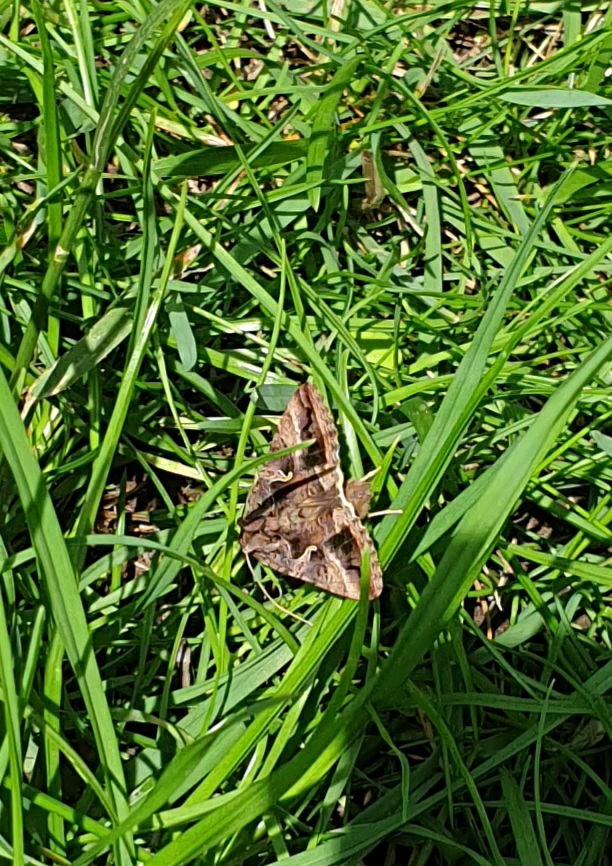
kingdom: Animalia
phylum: Arthropoda
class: Insecta
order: Lepidoptera
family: Noctuidae
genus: Autographa
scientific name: Autographa gamma
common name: Gammaugle
